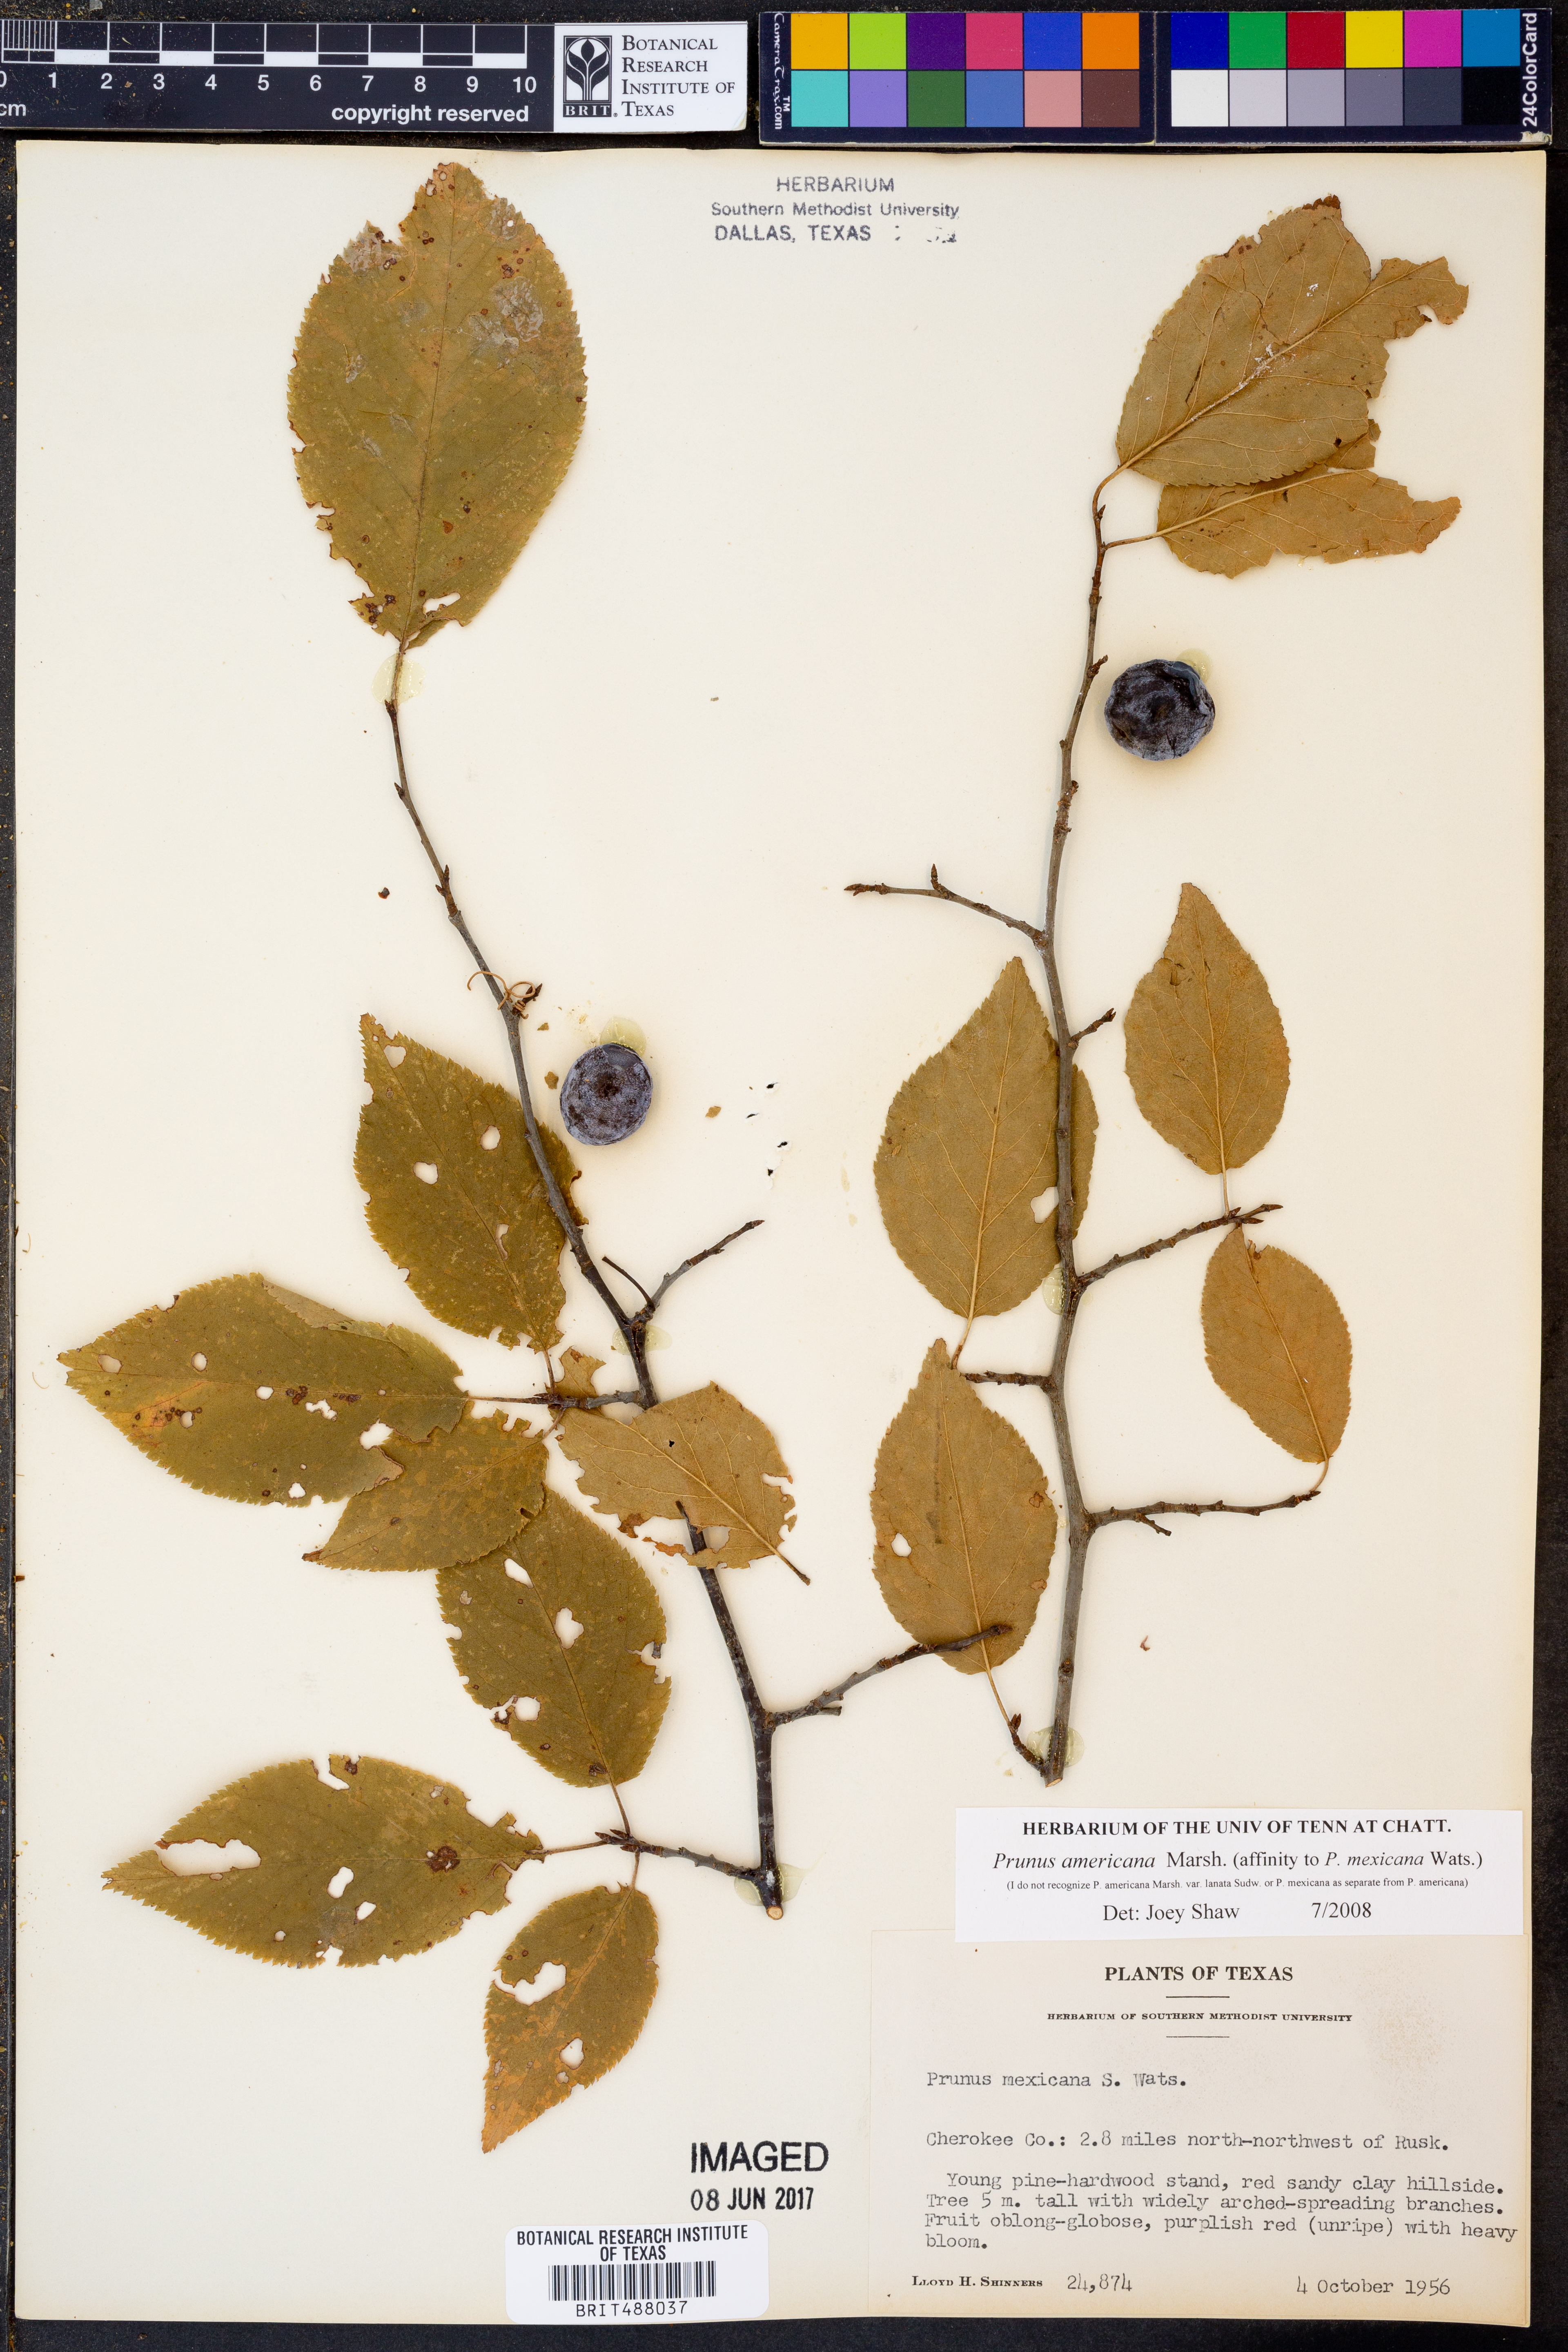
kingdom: Plantae
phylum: Tracheophyta
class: Magnoliopsida
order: Rosales
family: Rosaceae
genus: Prunus
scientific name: Prunus mexicana
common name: Mexican plum
